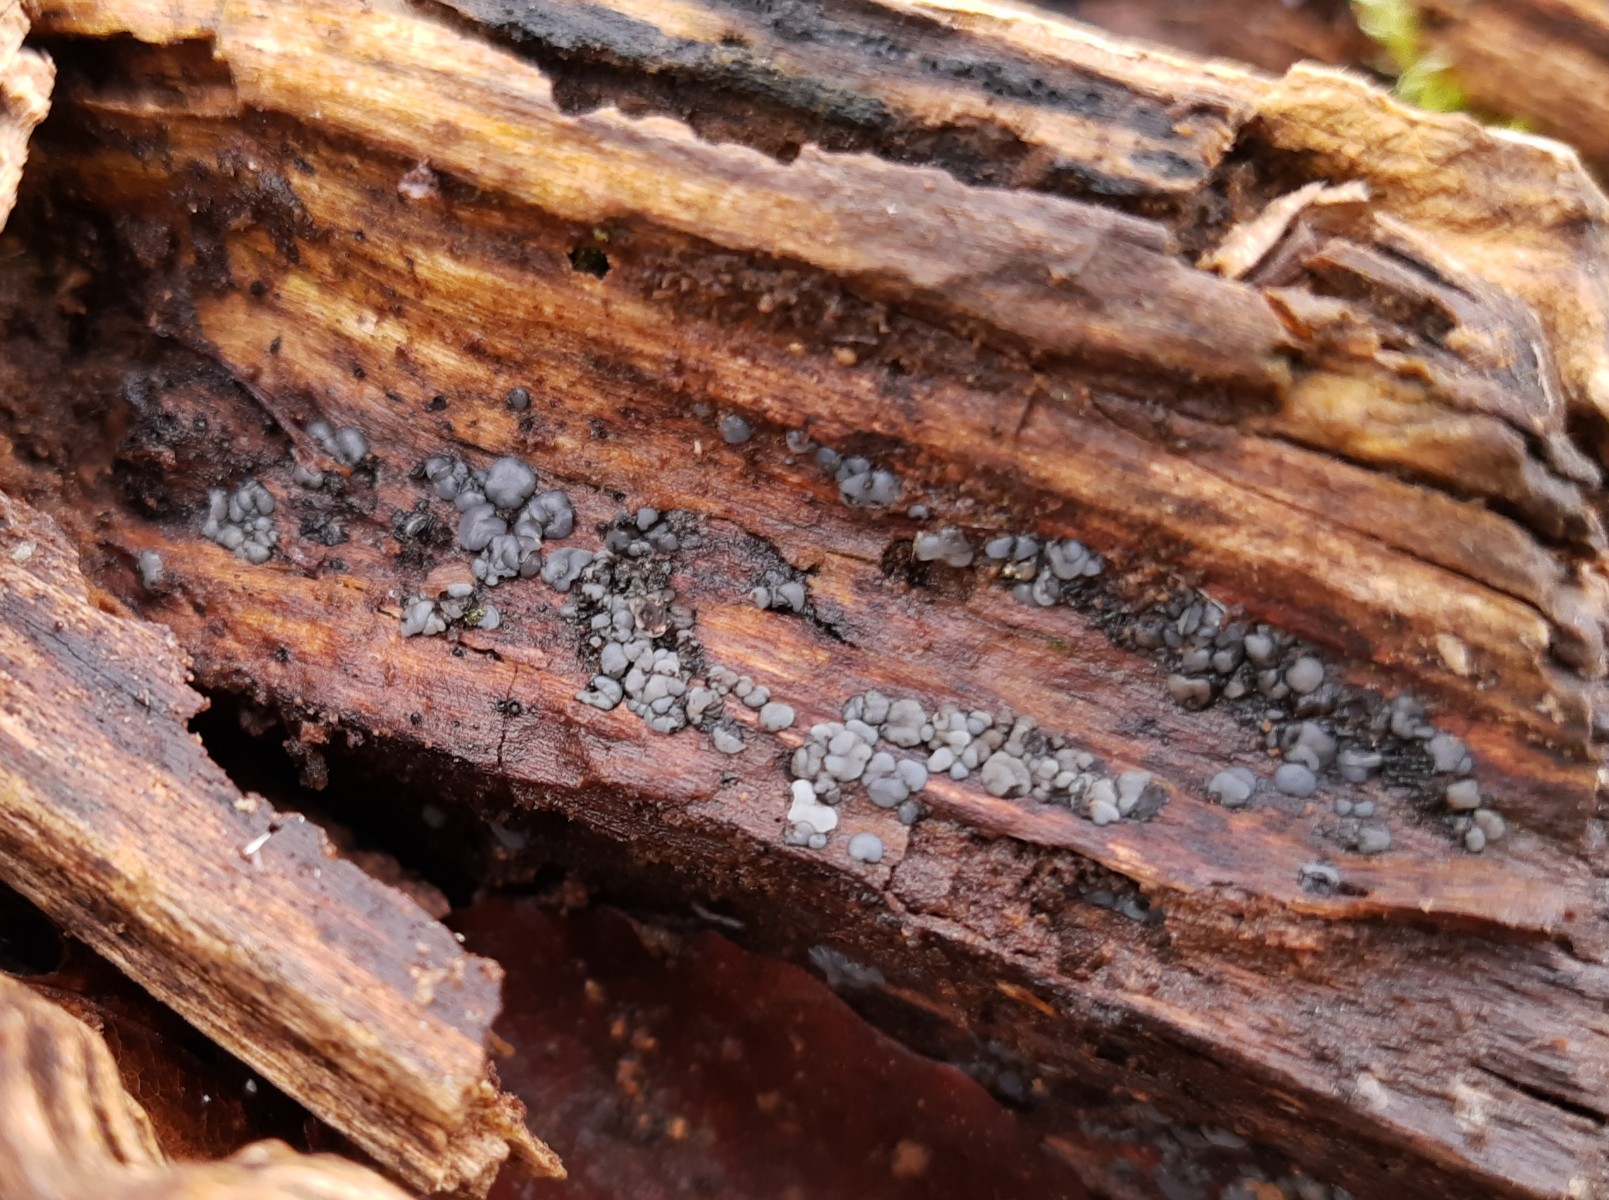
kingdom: Fungi
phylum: Ascomycota
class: Leotiomycetes
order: Helotiales
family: Mollisiaceae
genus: Mollisia
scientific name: Mollisia
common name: gråskive
